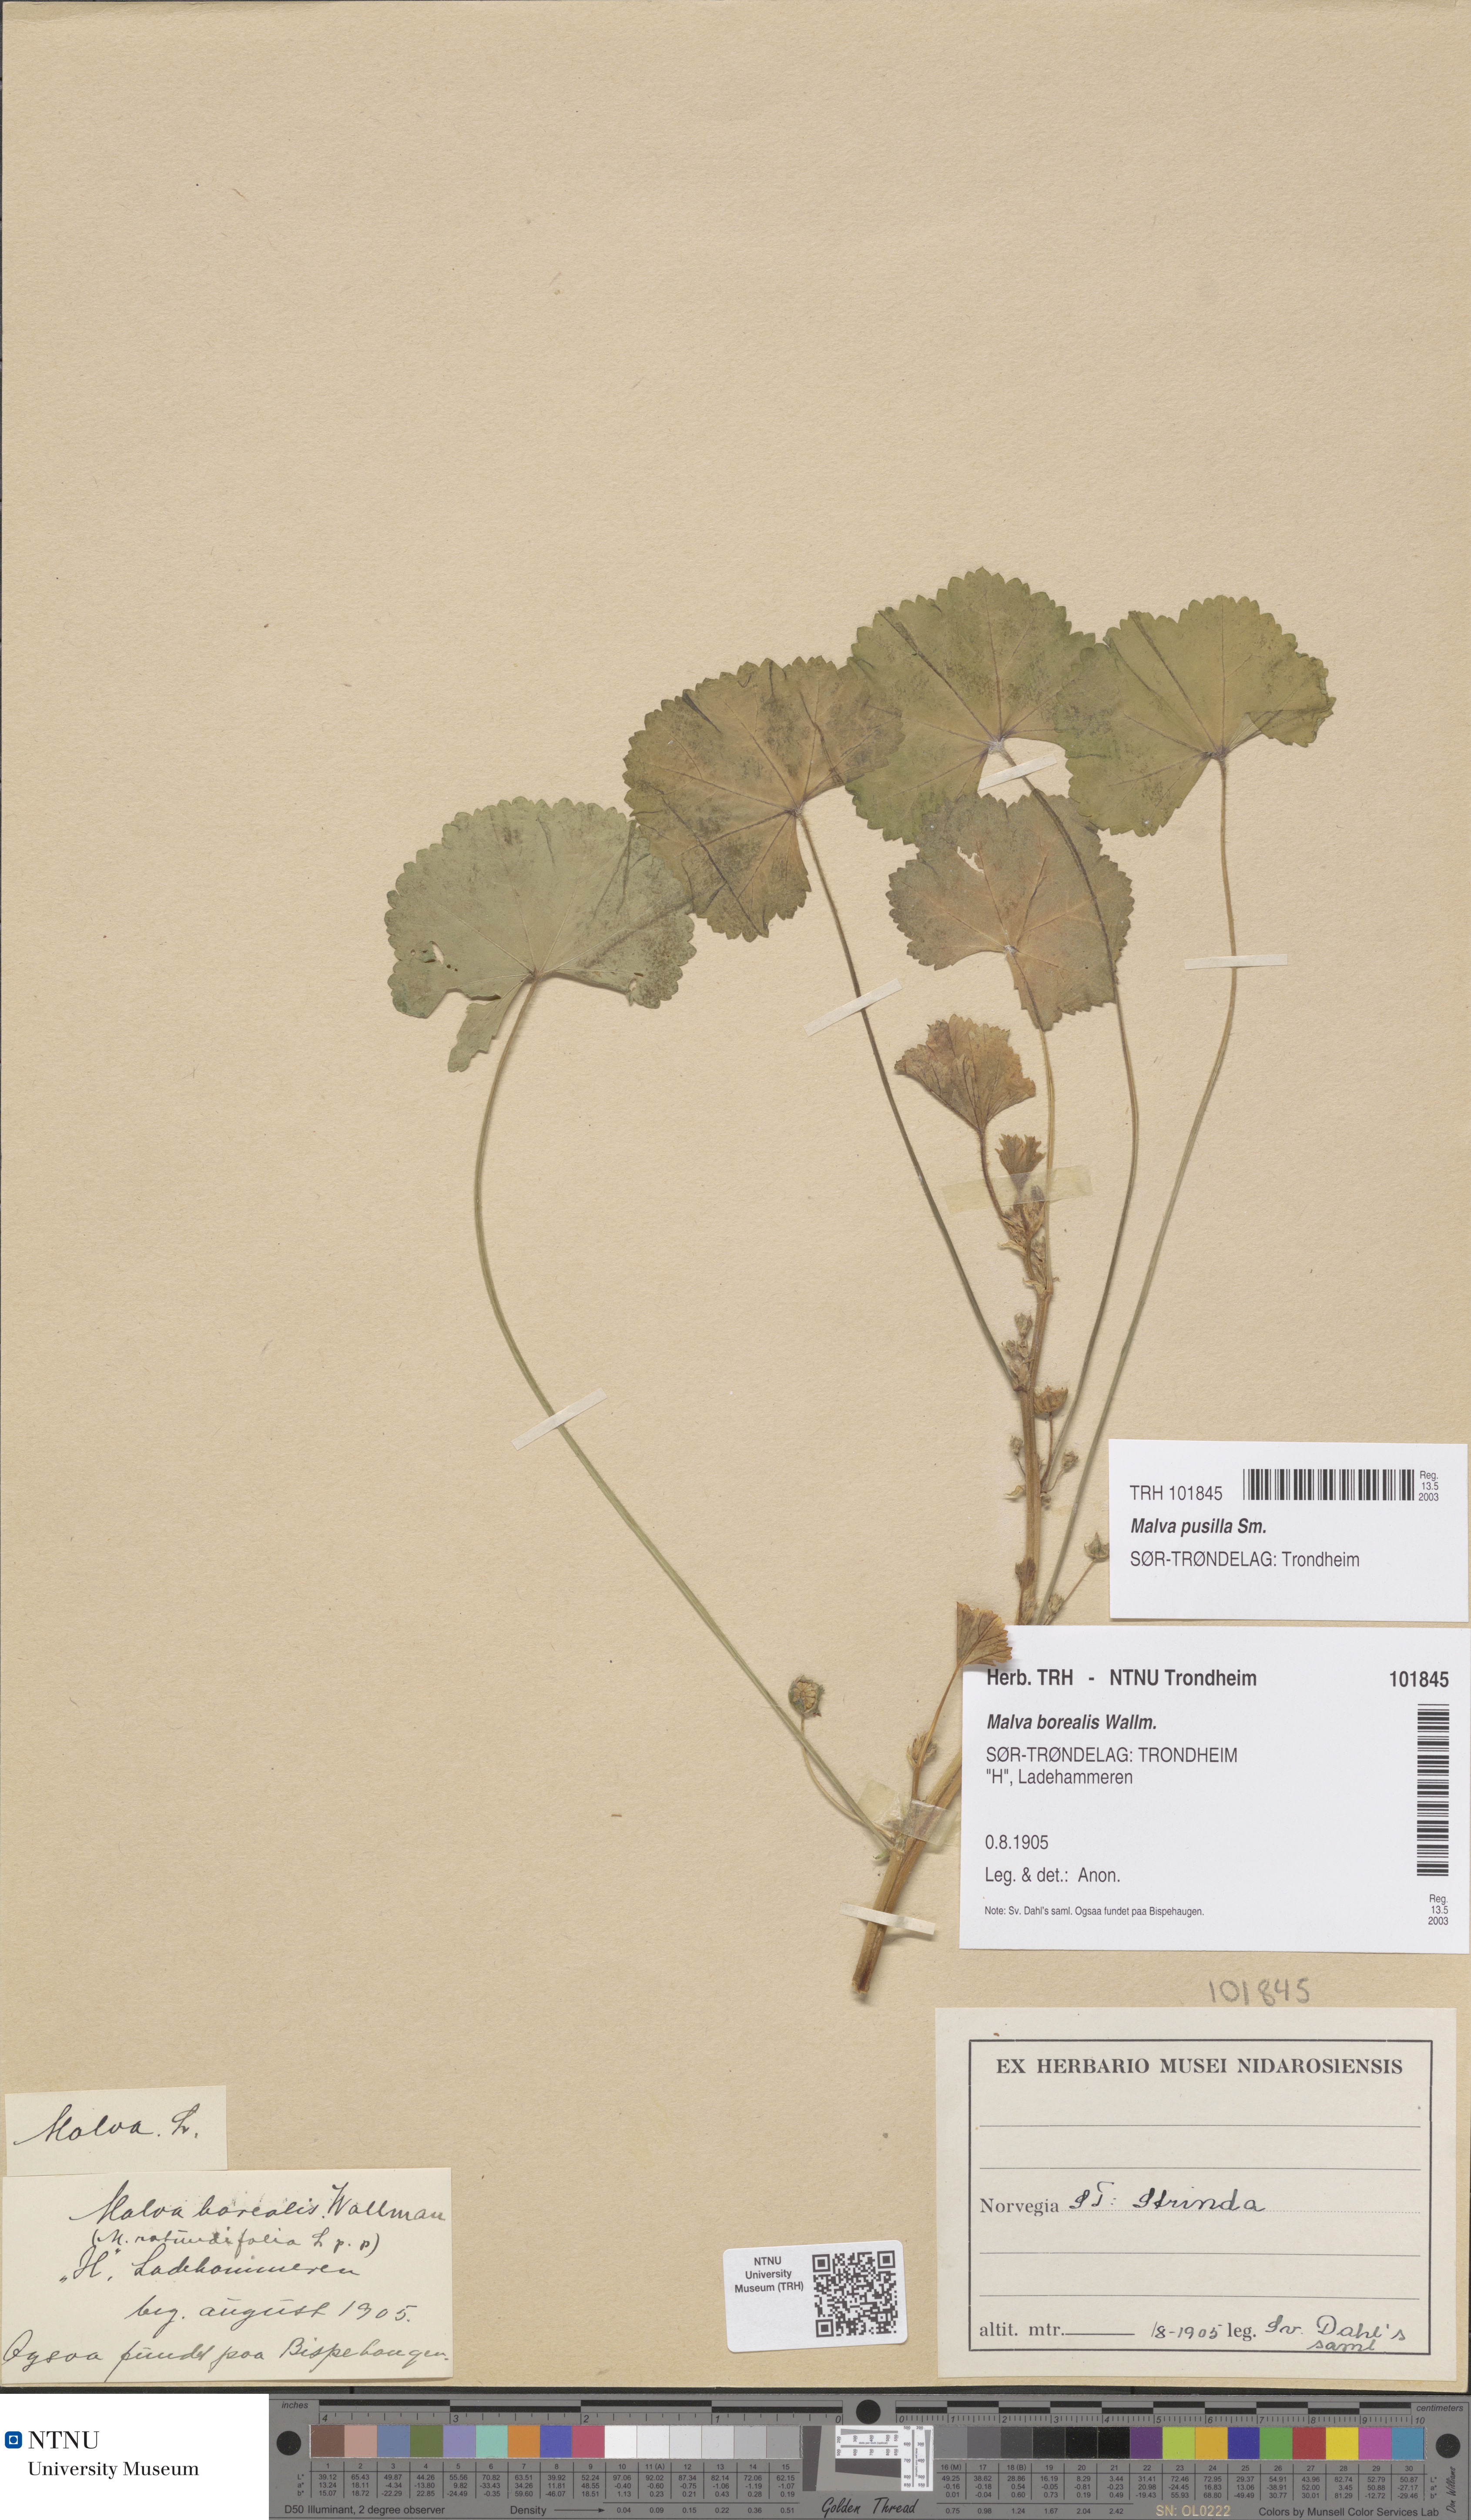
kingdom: Plantae
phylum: Tracheophyta
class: Magnoliopsida
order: Malvales
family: Malvaceae
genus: Malva
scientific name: Malva pusilla
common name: Small mallow
